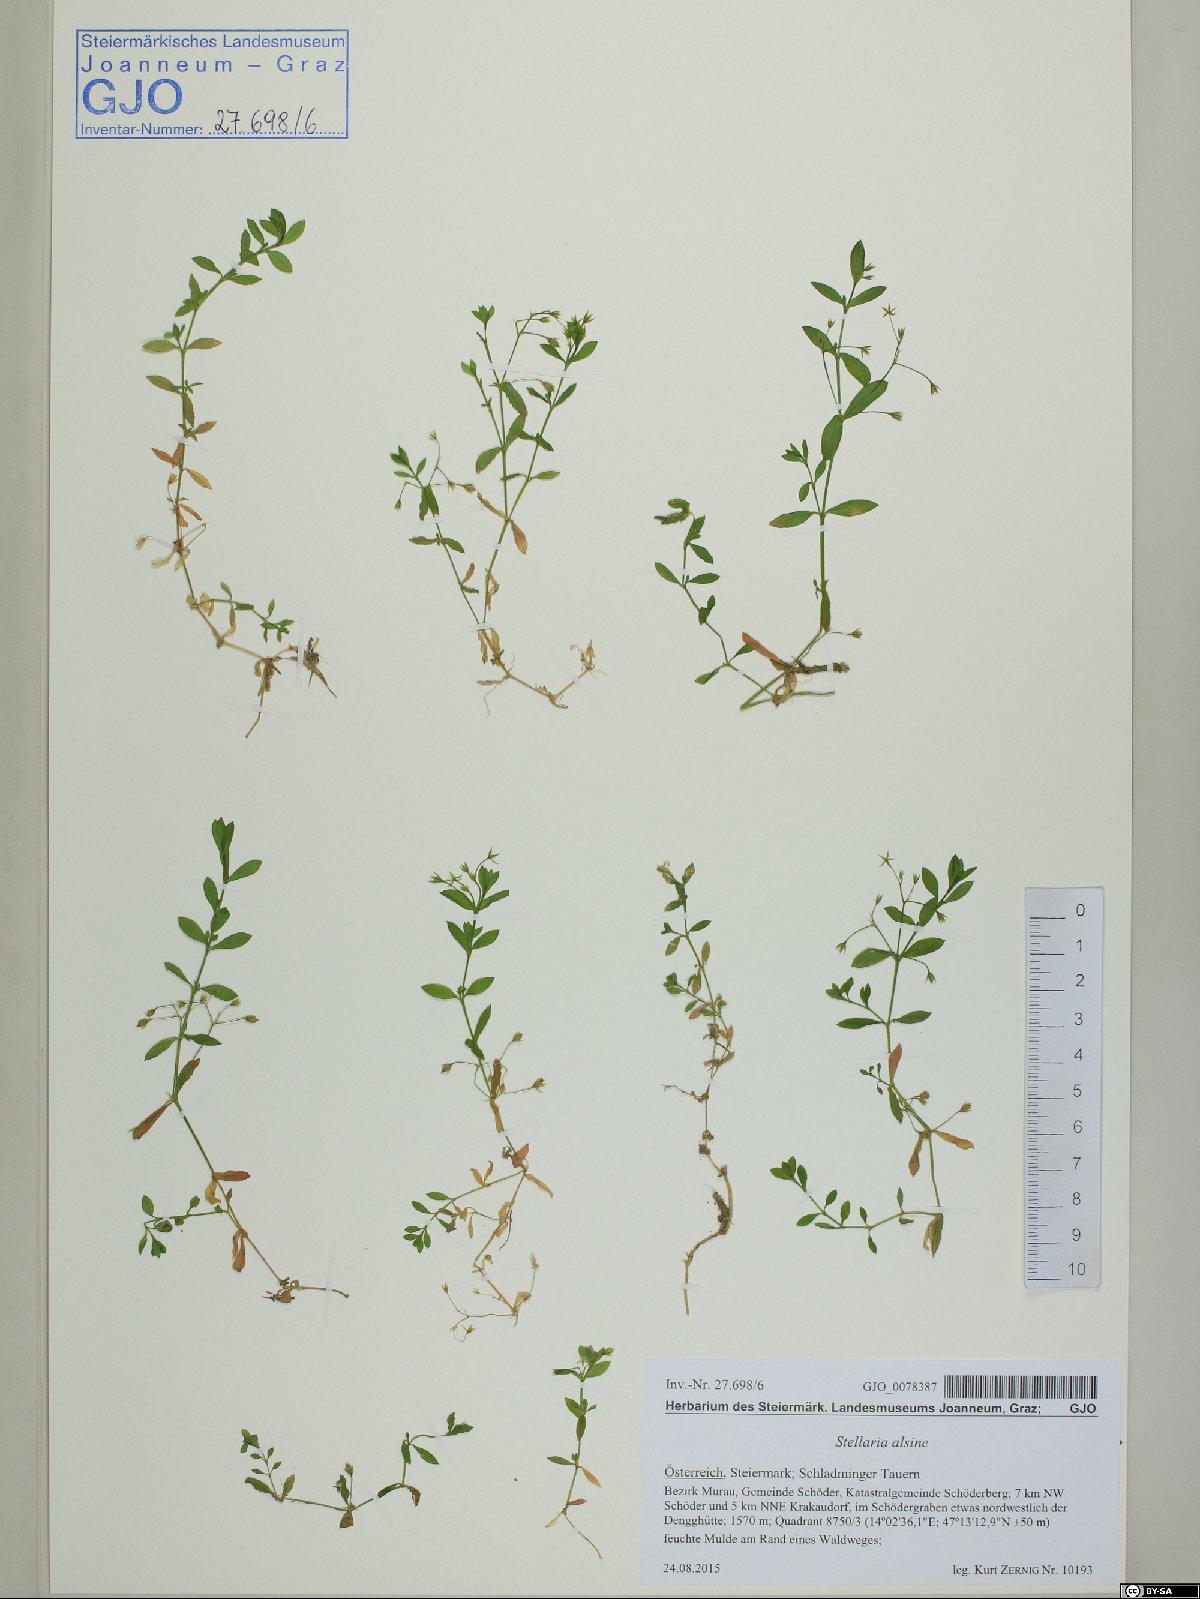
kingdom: Plantae
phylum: Tracheophyta
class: Magnoliopsida
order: Caryophyllales
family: Caryophyllaceae
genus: Stellaria
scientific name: Stellaria alsine
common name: Bog stitchwort
